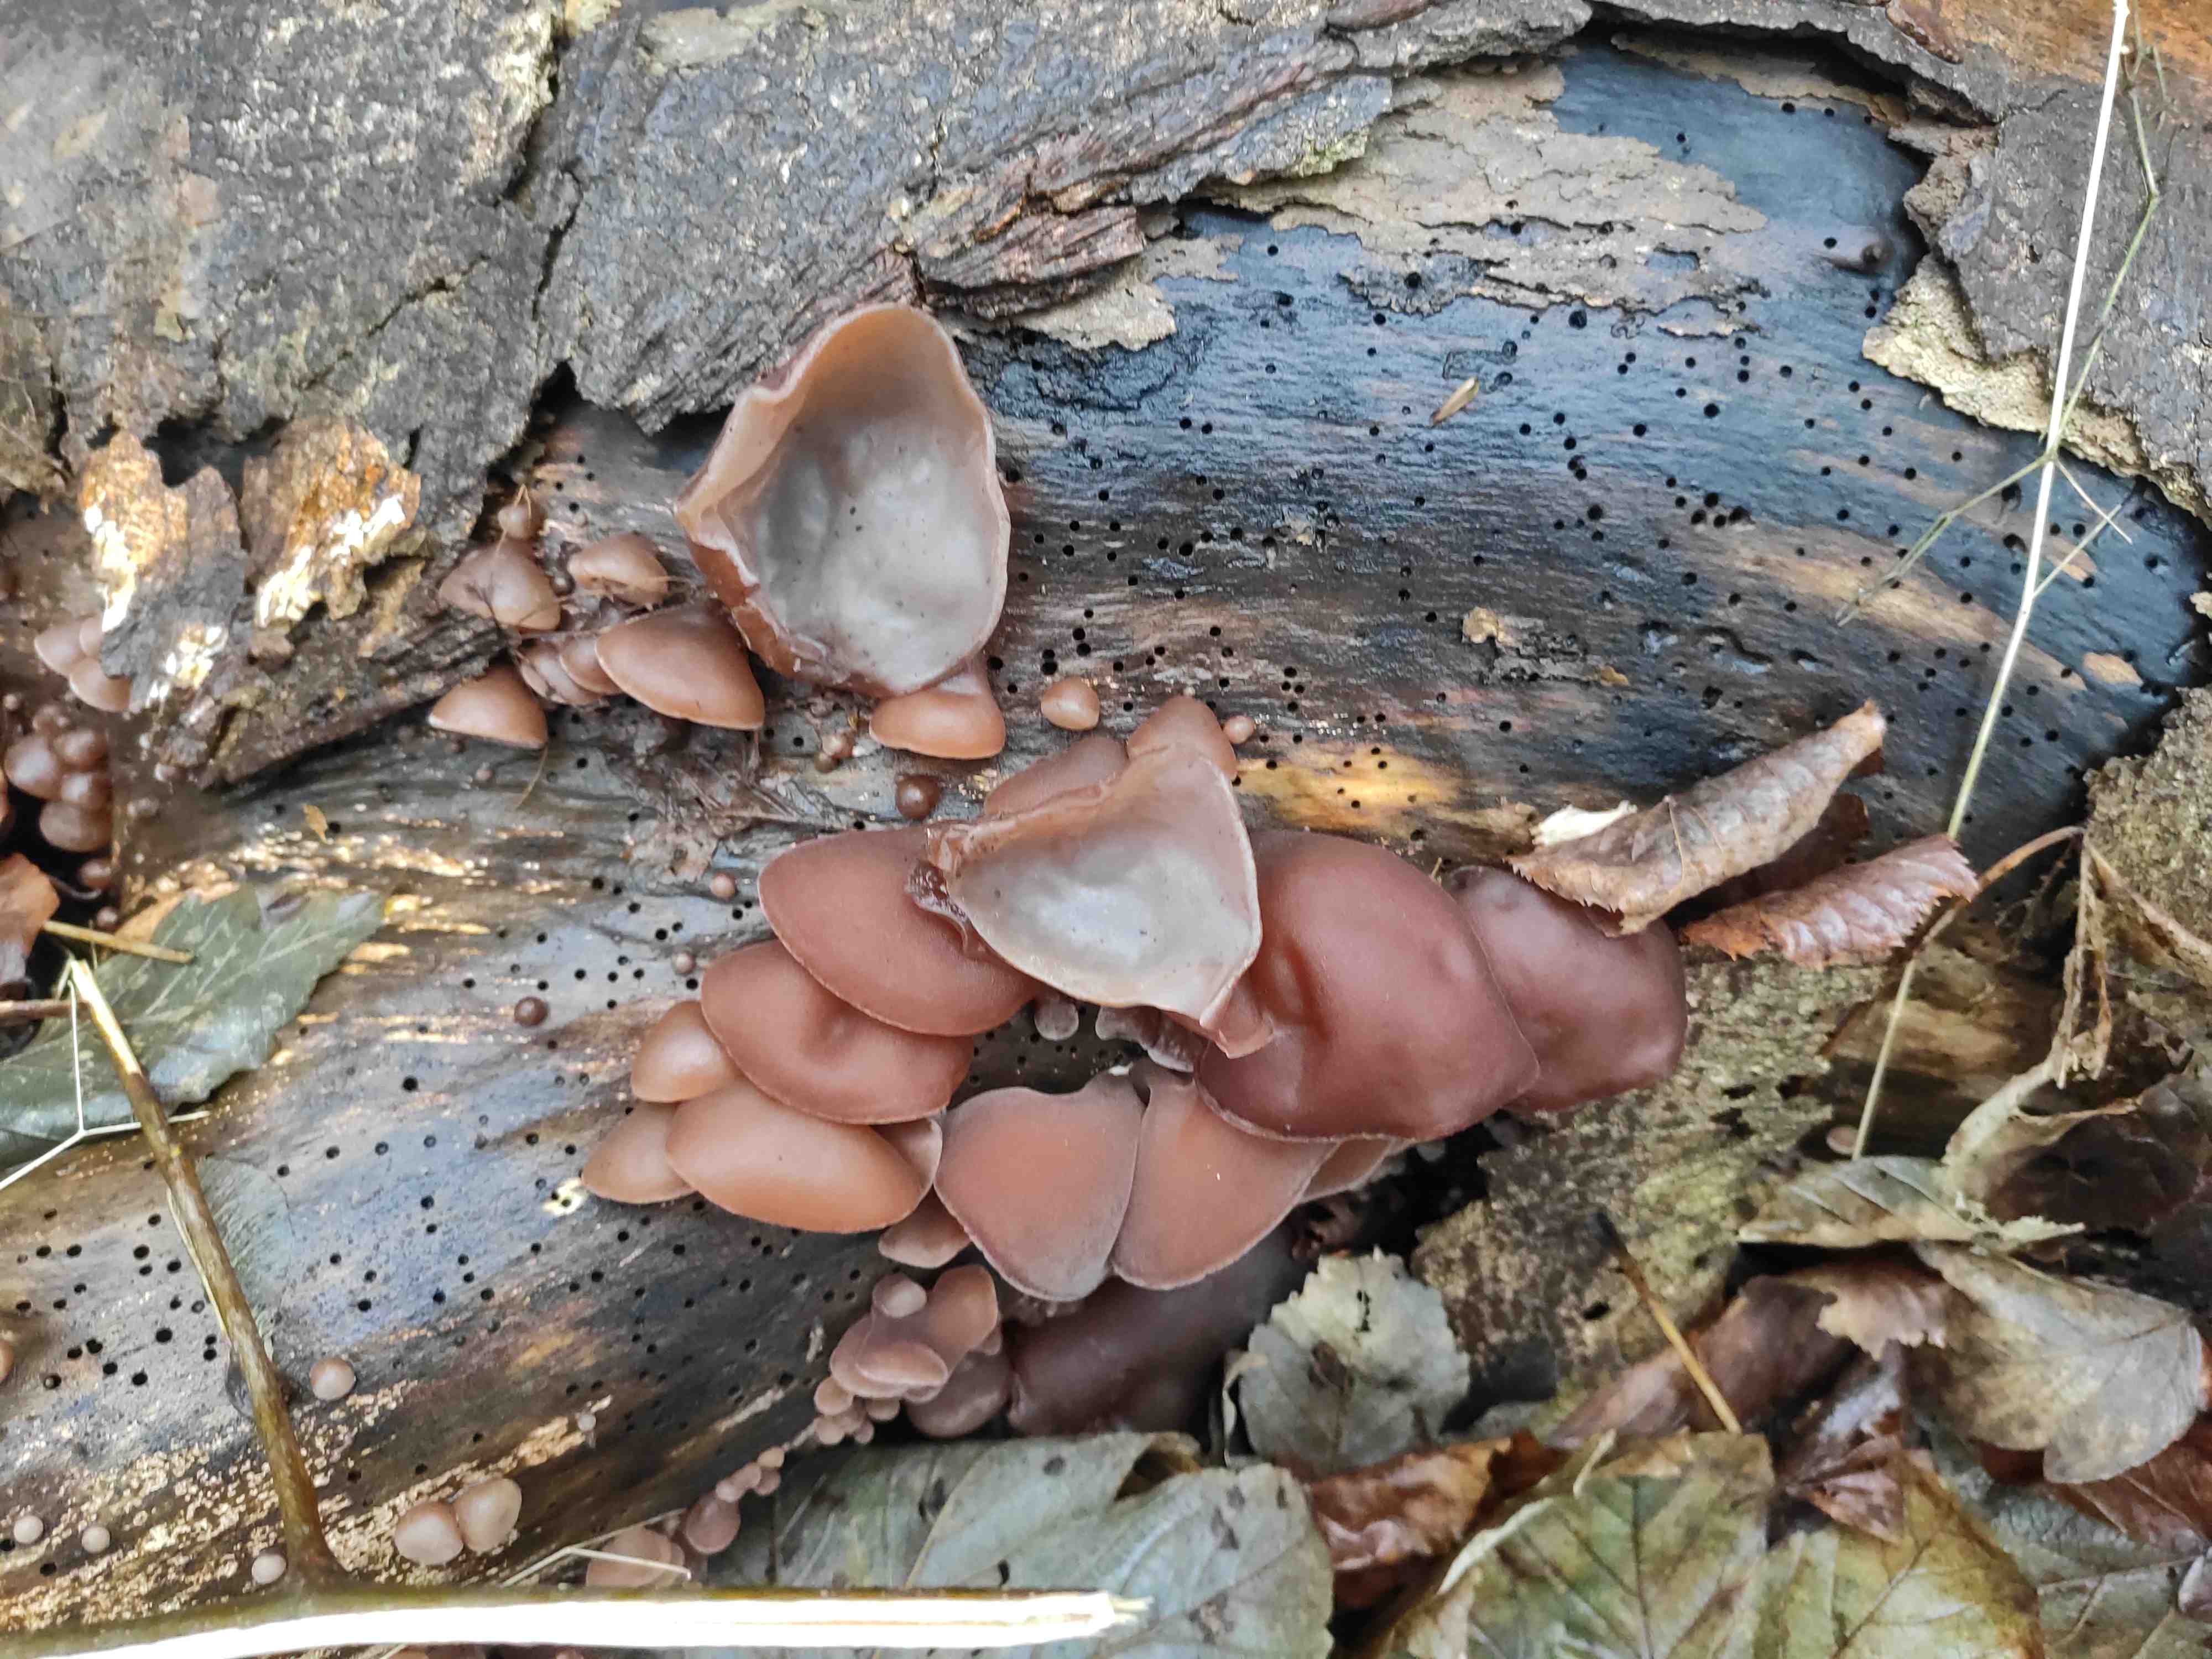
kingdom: Fungi
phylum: Basidiomycota
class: Agaricomycetes
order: Auriculariales
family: Auriculariaceae
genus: Auricularia
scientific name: Auricularia auricula-judae
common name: almindelig judasøre
